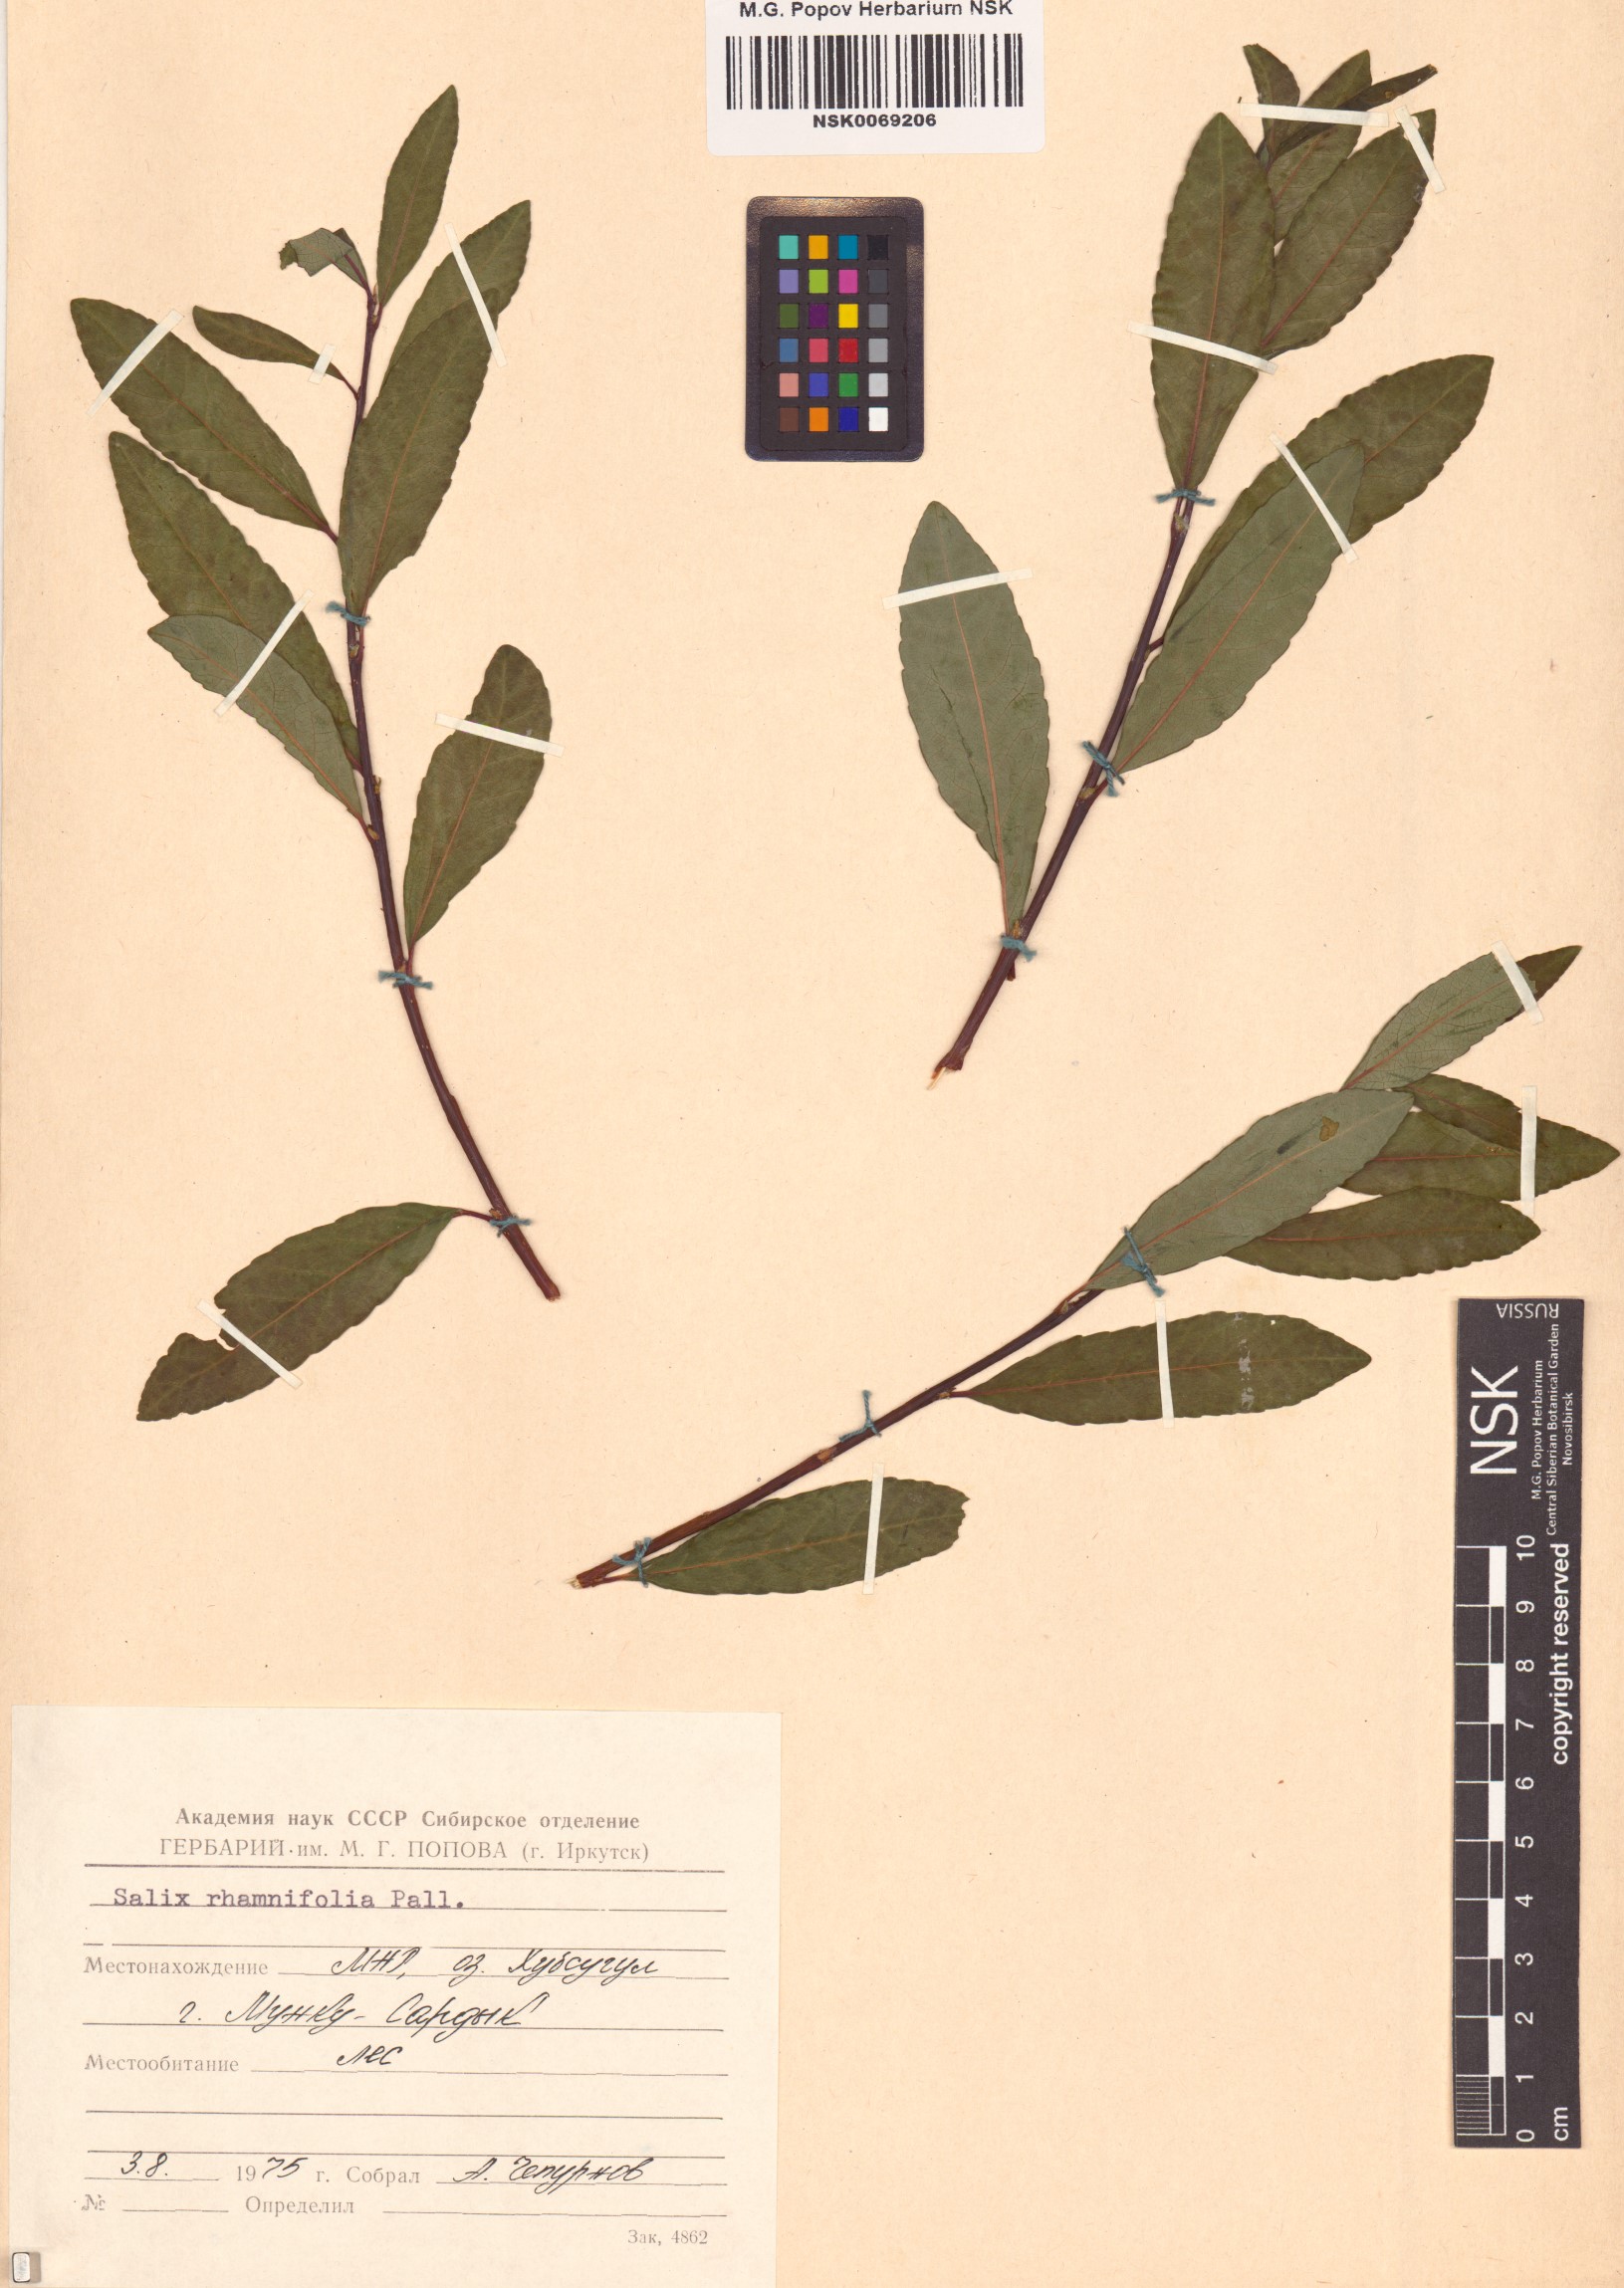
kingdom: Plantae
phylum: Tracheophyta
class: Magnoliopsida
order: Malpighiales
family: Salicaceae
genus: Salix
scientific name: Salix rhamnifolia
